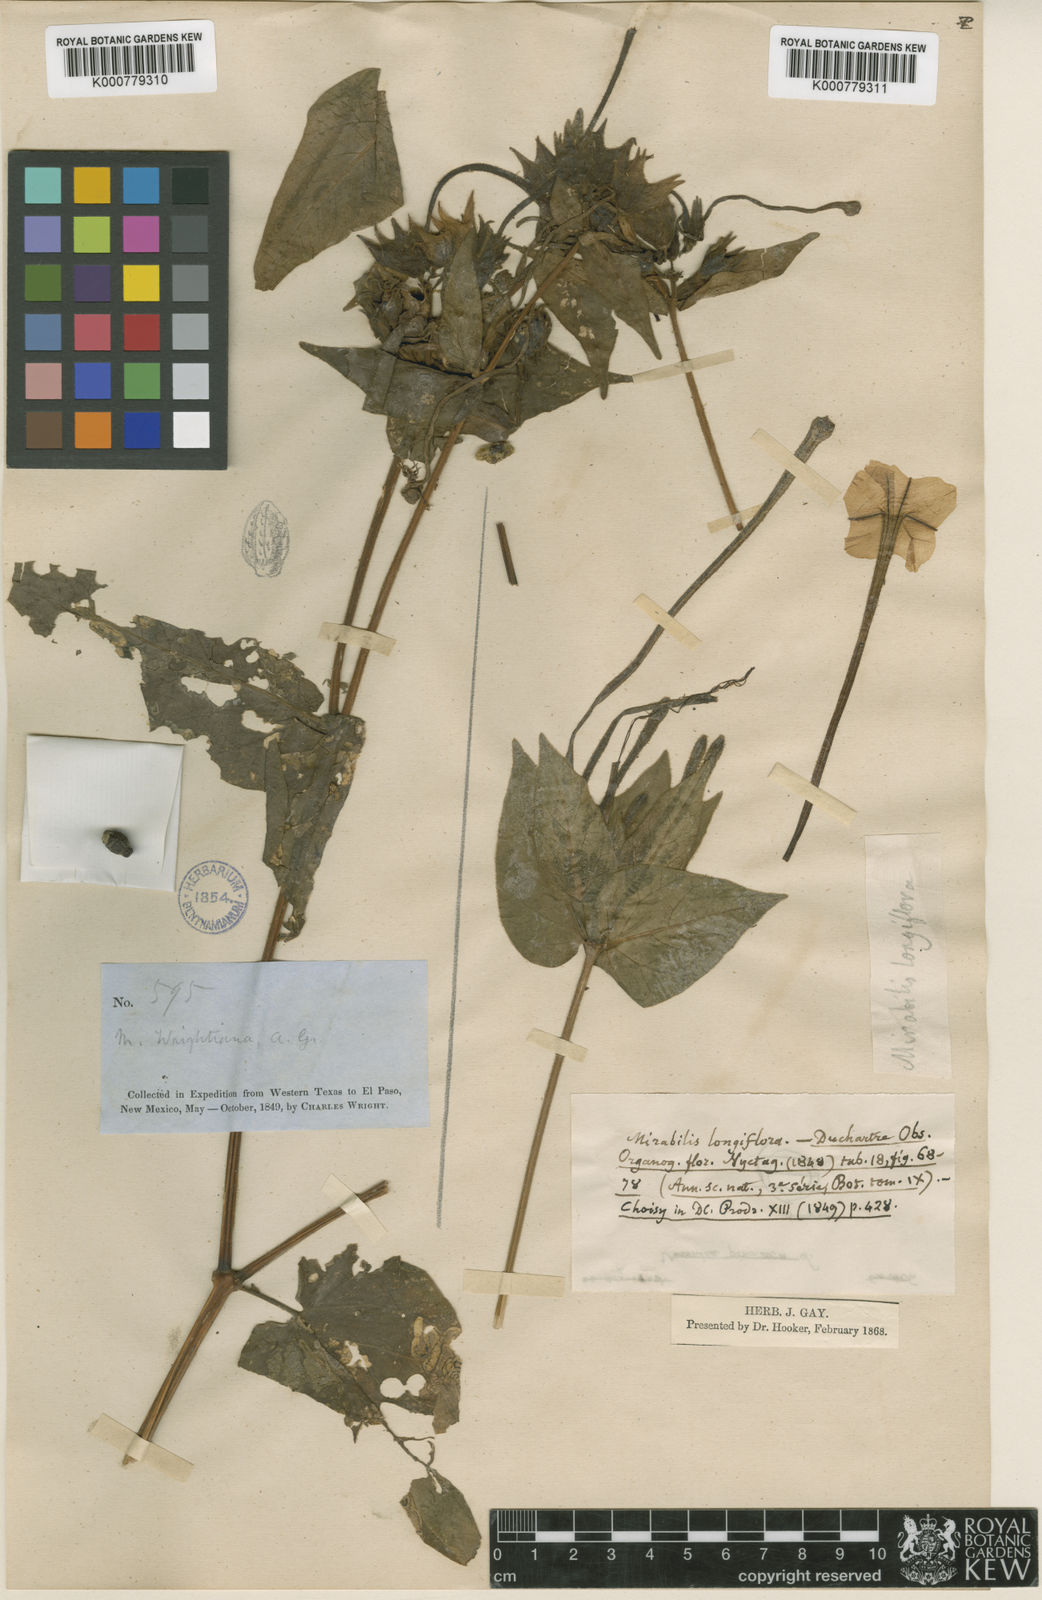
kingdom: Plantae
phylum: Tracheophyta
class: Magnoliopsida
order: Caryophyllales
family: Nyctaginaceae
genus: Mirabilis
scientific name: Mirabilis longiflora
